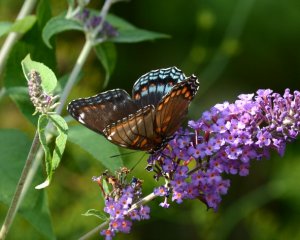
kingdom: Animalia
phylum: Arthropoda
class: Insecta
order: Lepidoptera
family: Nymphalidae
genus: Limenitis
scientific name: Limenitis astyanax
